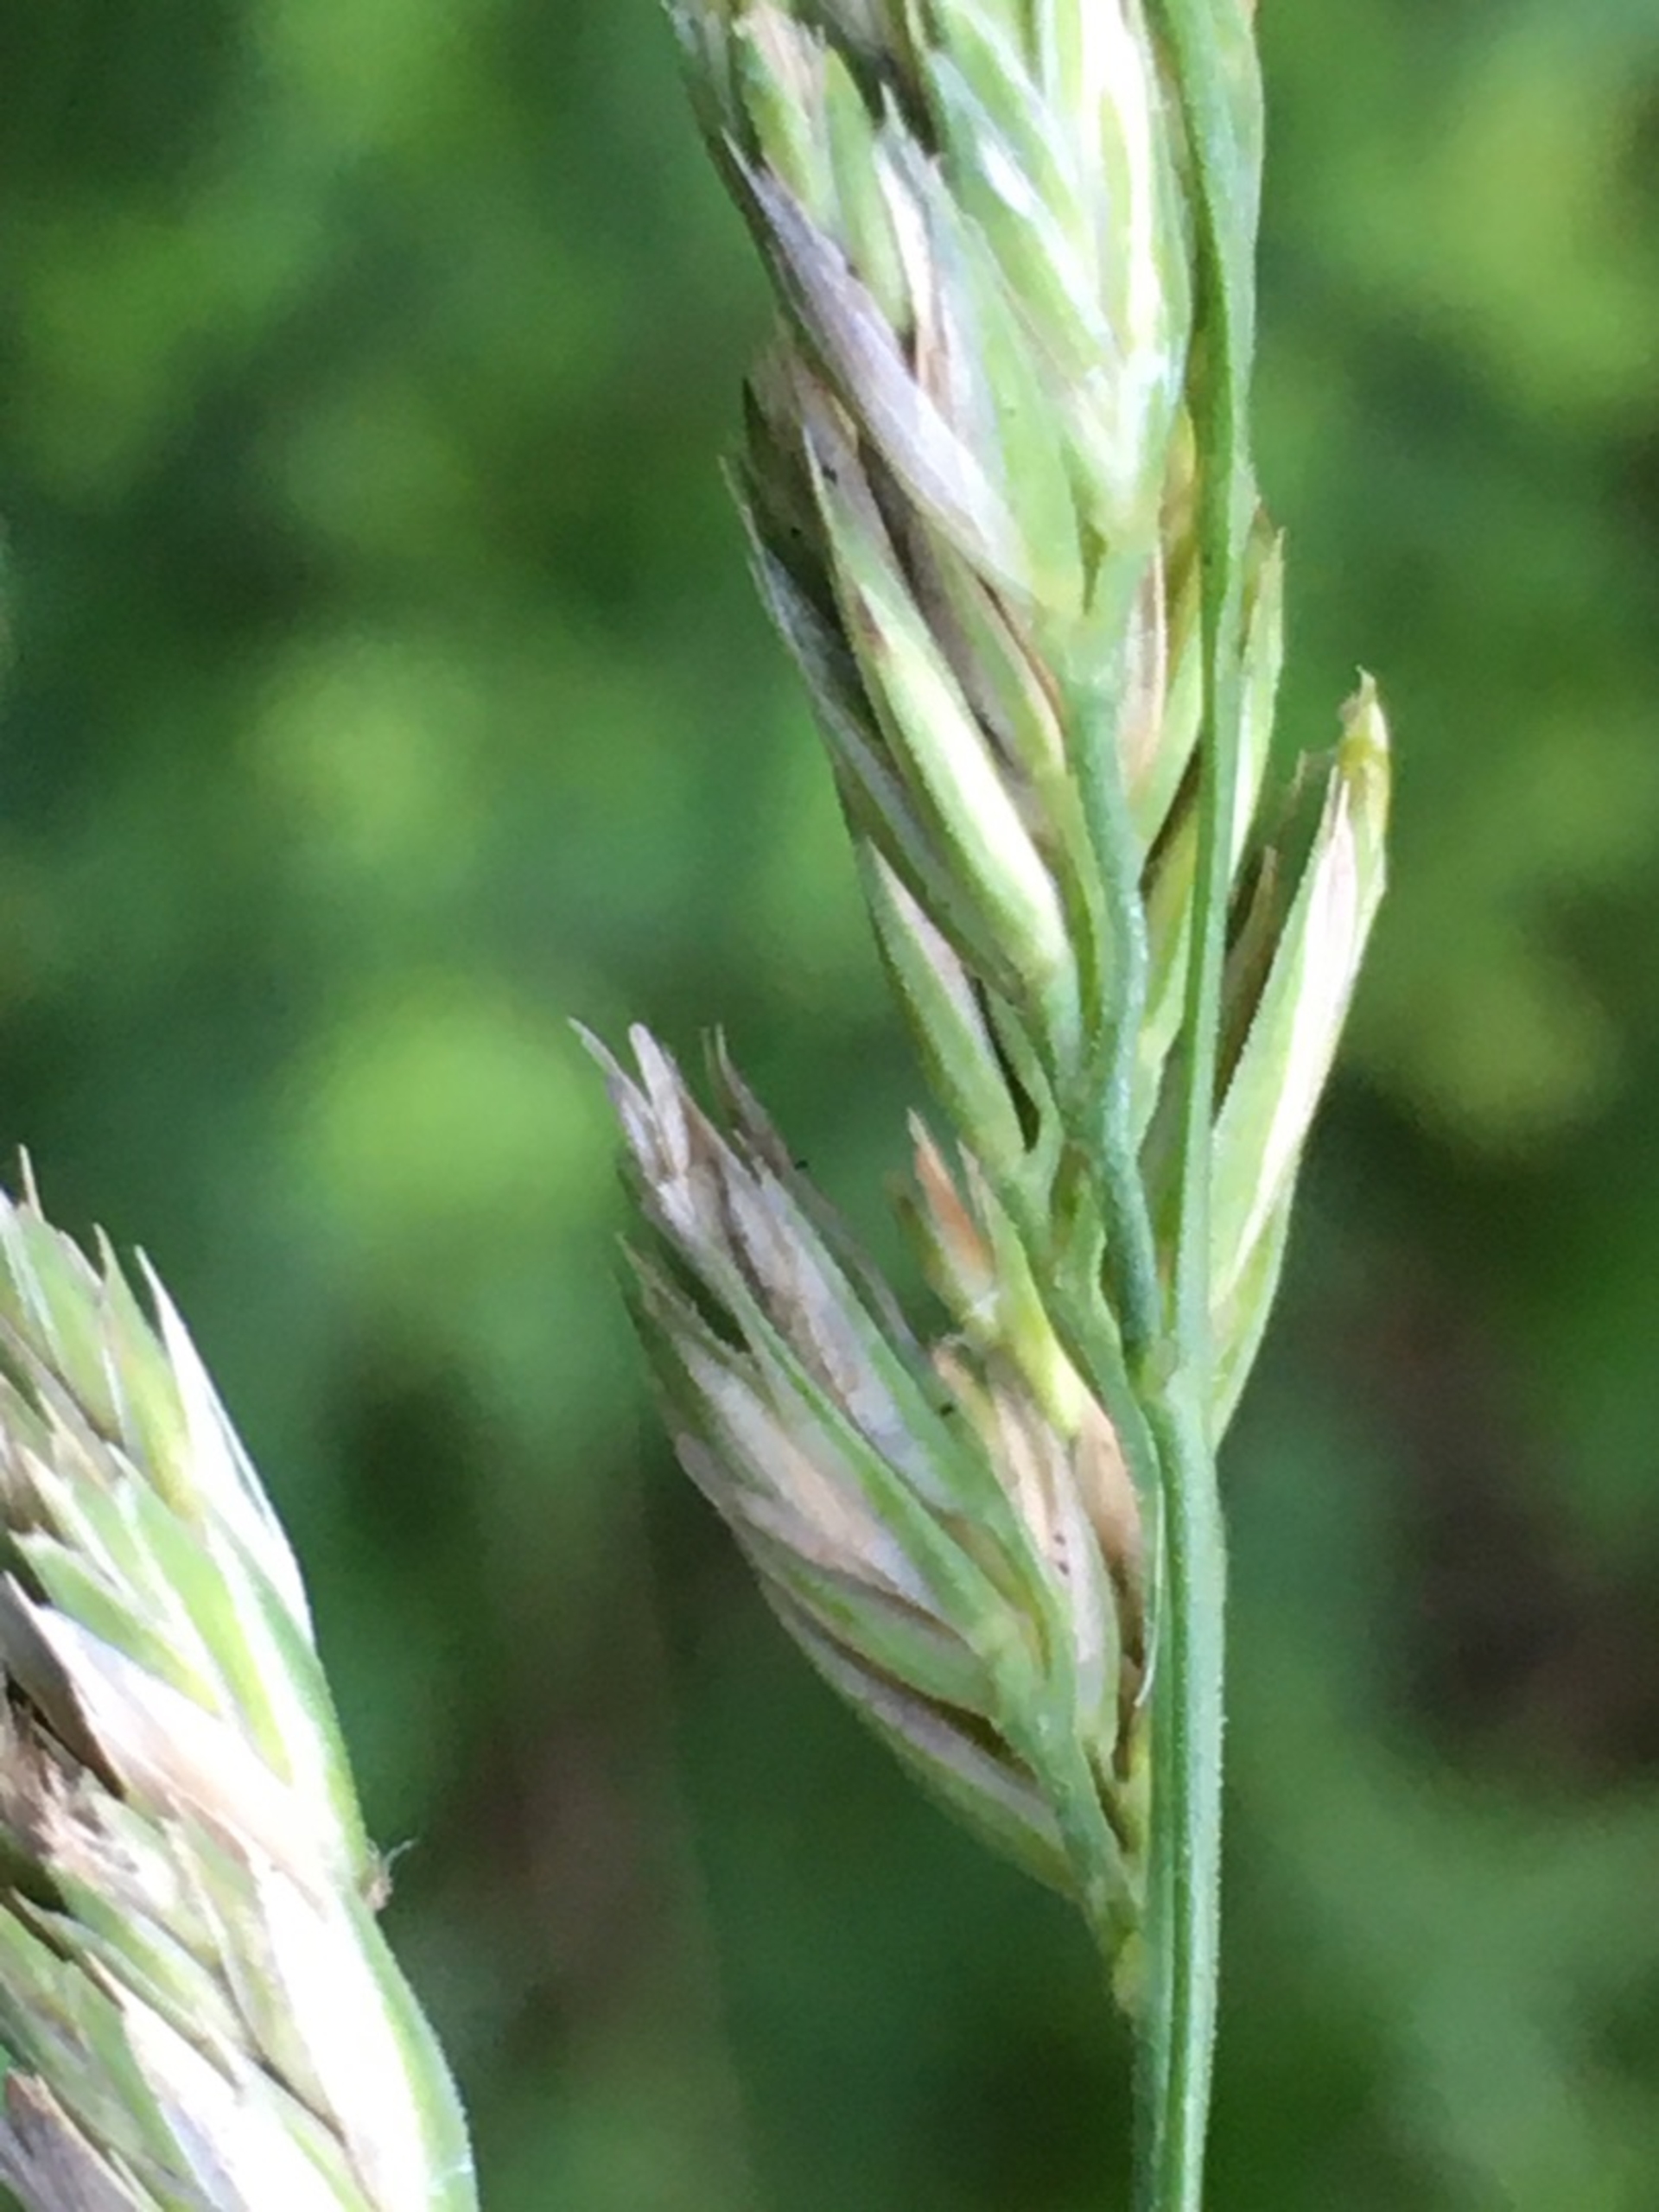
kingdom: Plantae
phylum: Tracheophyta
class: Liliopsida
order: Poales
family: Poaceae
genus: Dactylis
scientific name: Dactylis glomerata
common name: Skov-hundegræs
